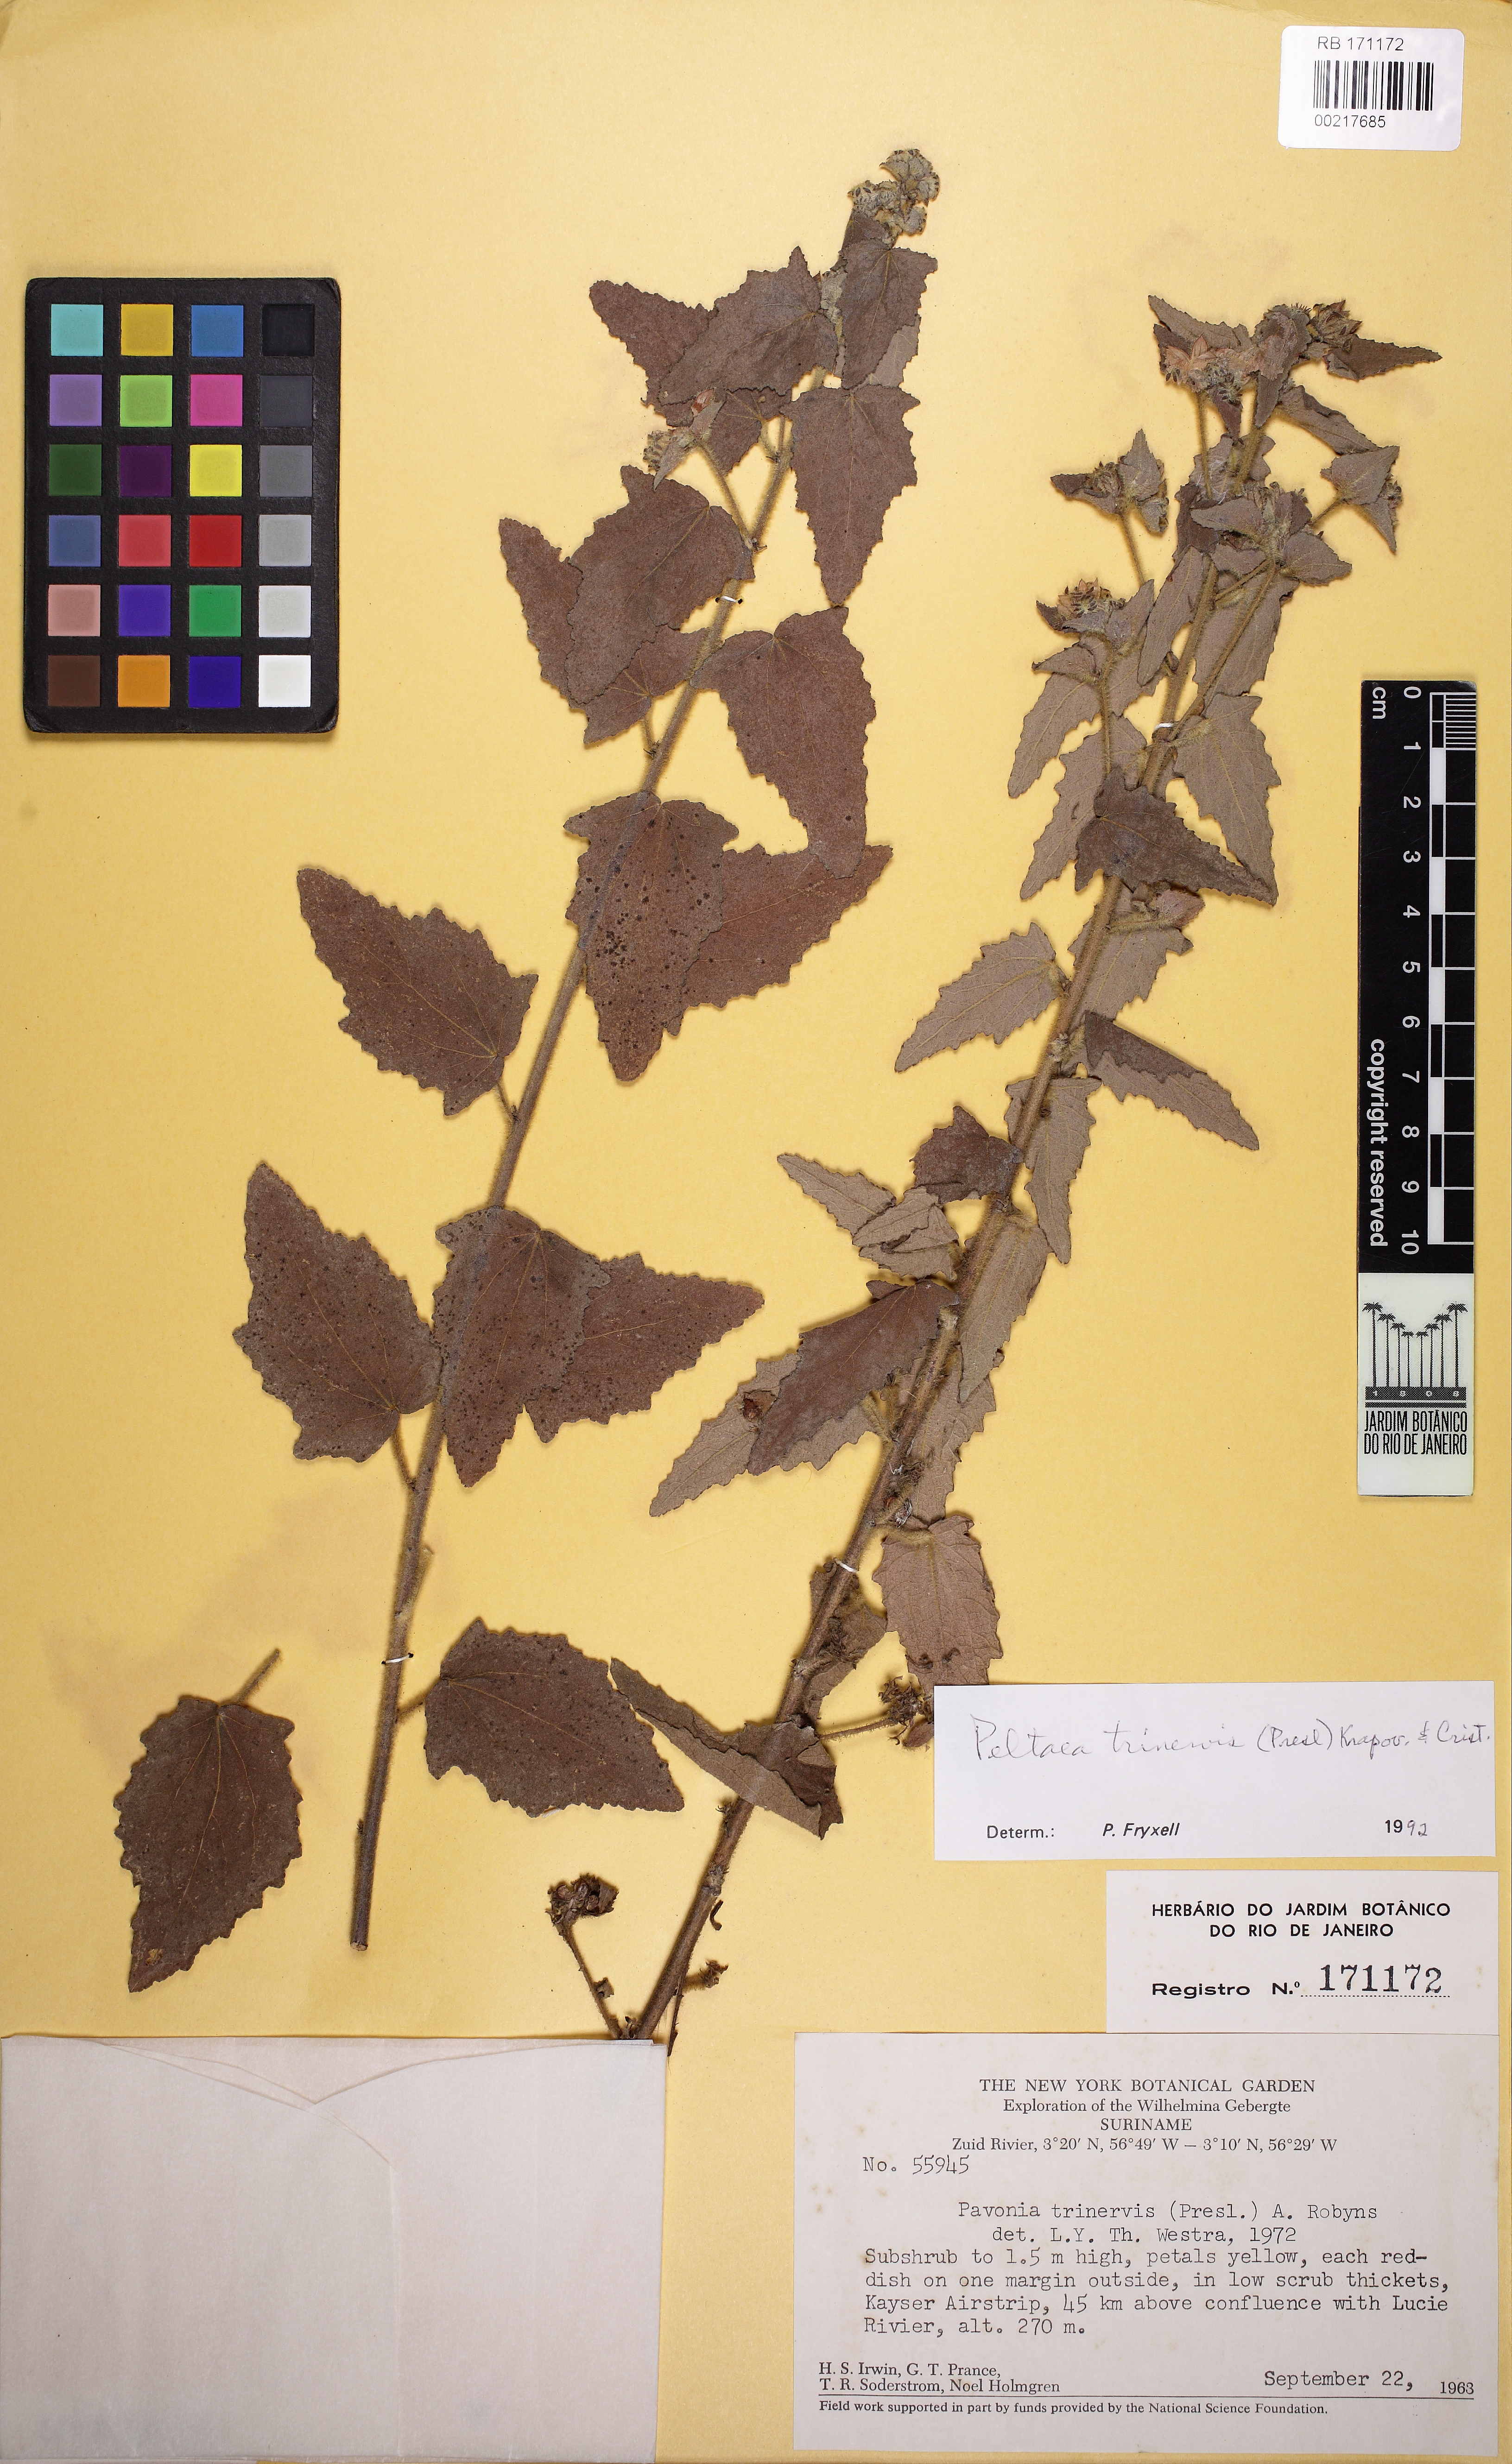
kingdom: Plantae
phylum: Tracheophyta
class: Magnoliopsida
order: Malvales
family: Malvaceae
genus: Peltaea
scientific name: Peltaea trinervis
